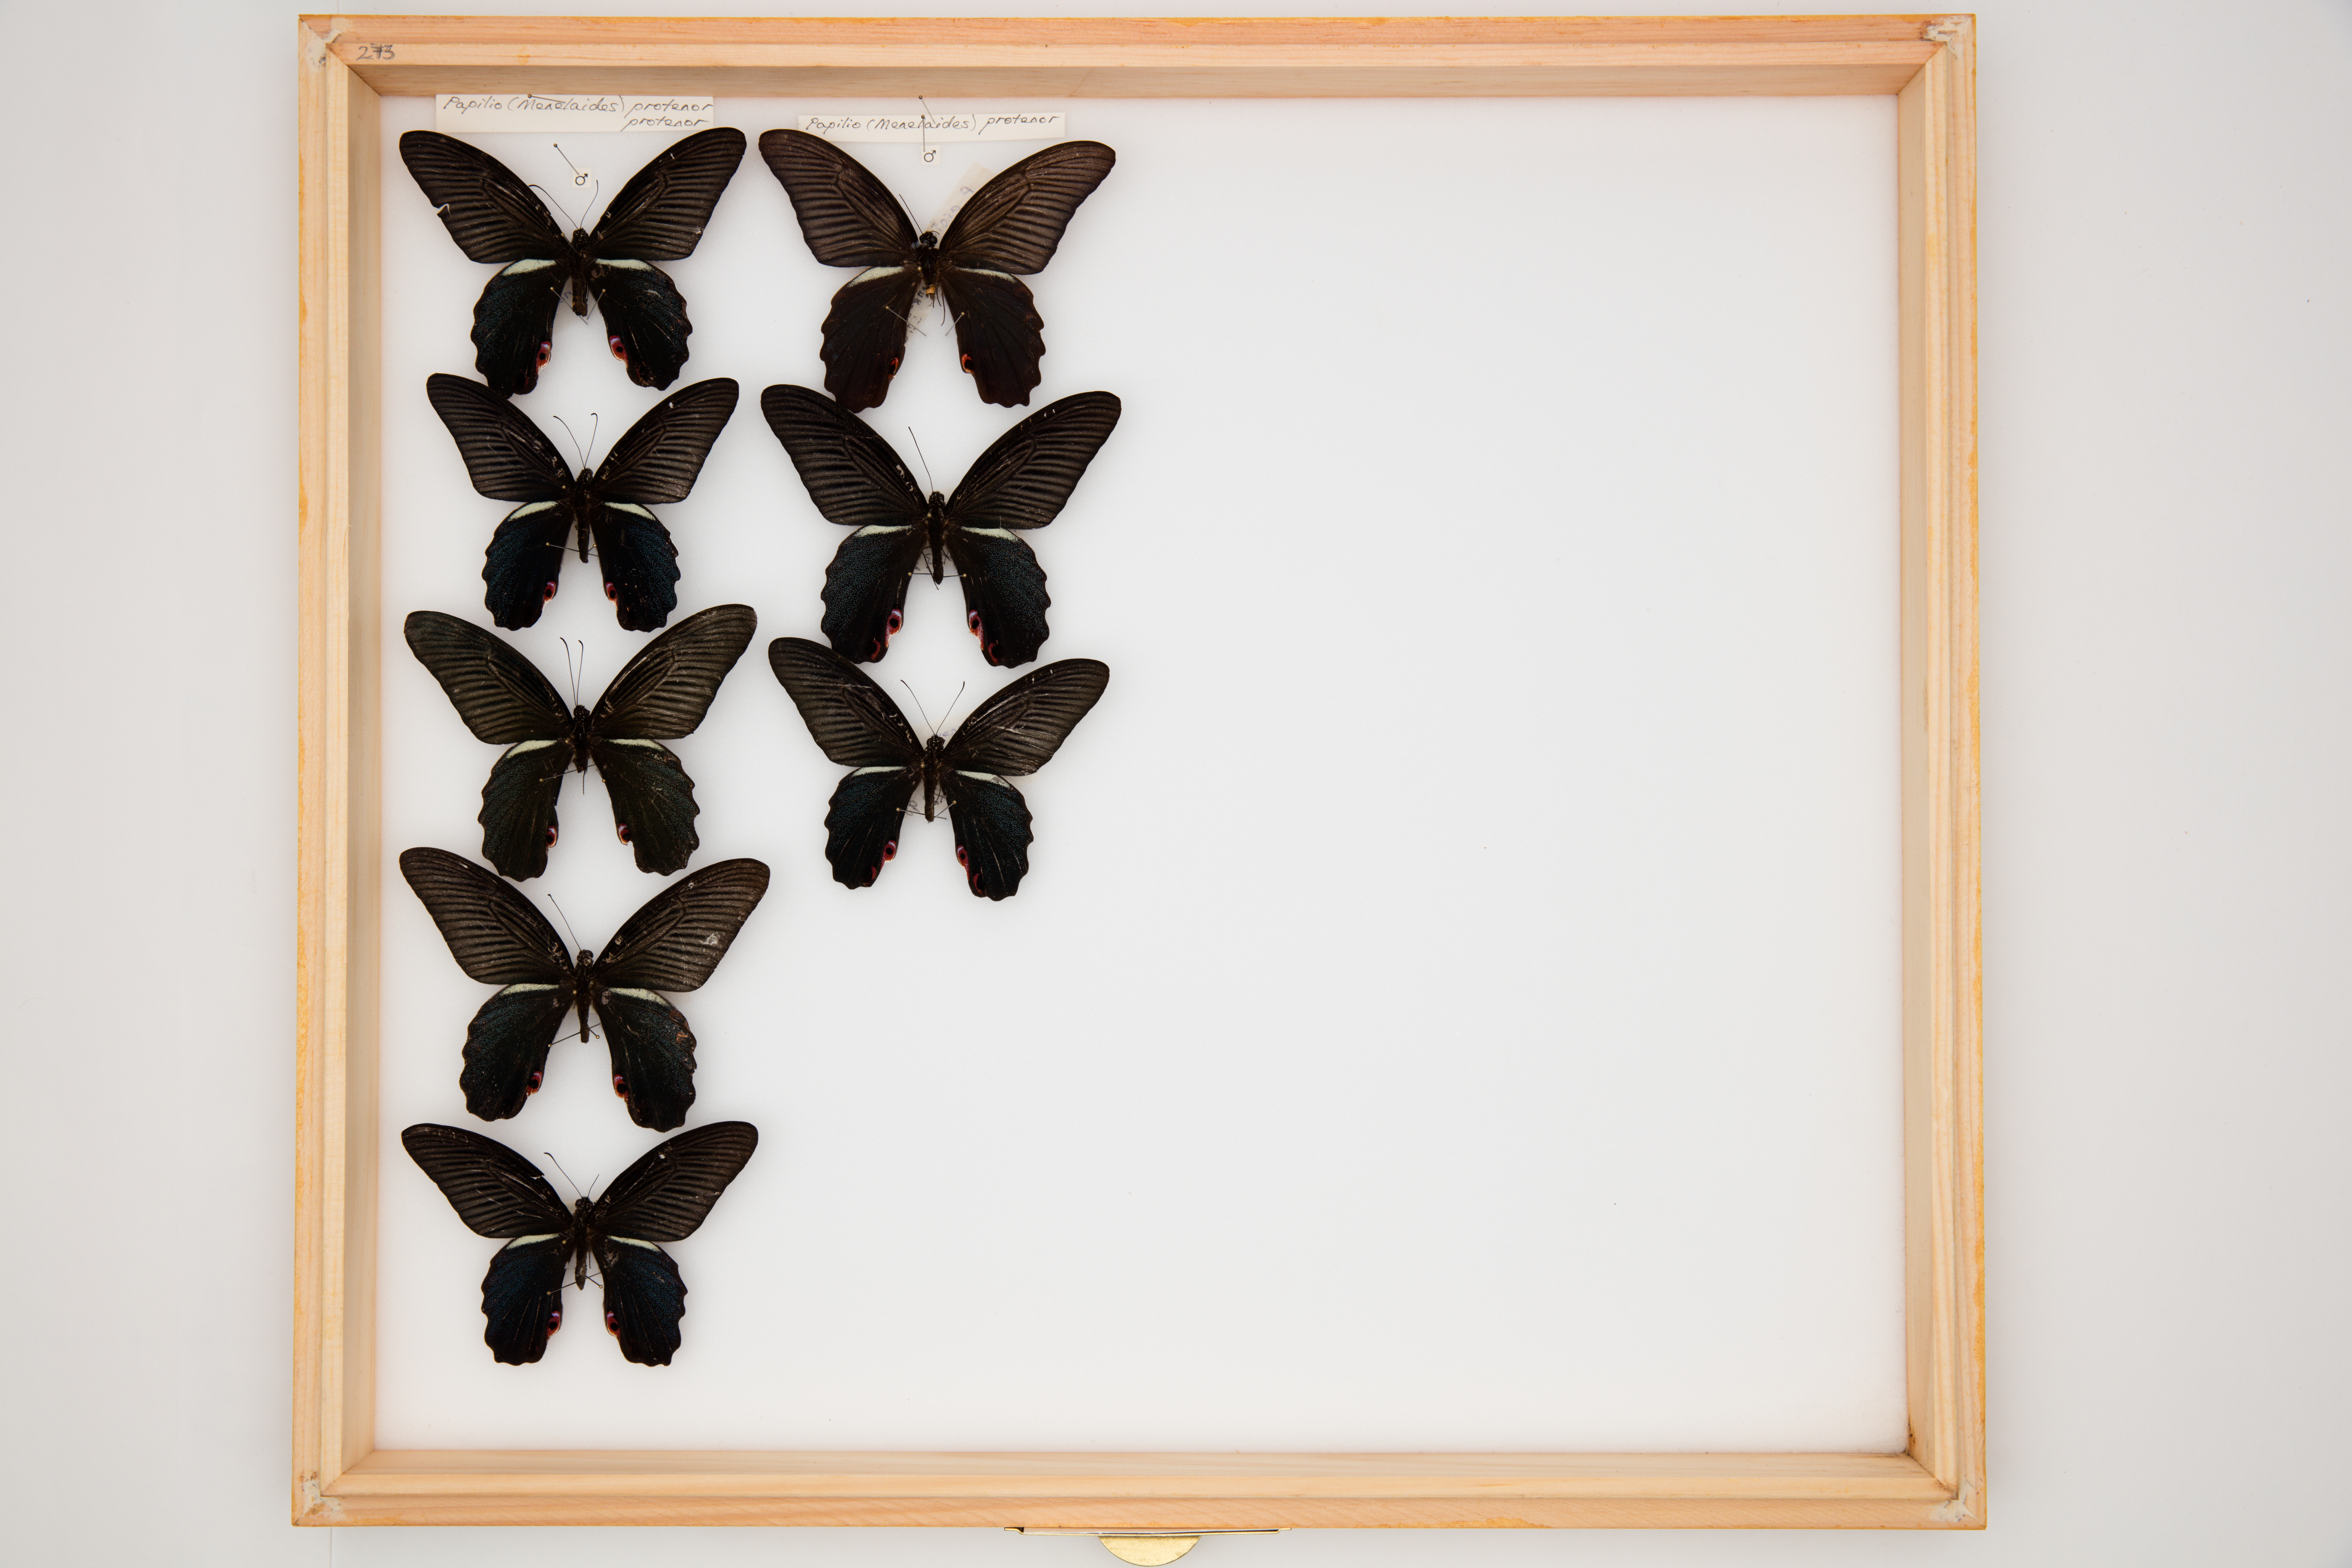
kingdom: Animalia
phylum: Arthropoda
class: Insecta
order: Lepidoptera
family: Papilionidae
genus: Papilio
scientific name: Papilio protenor
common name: Spangle
